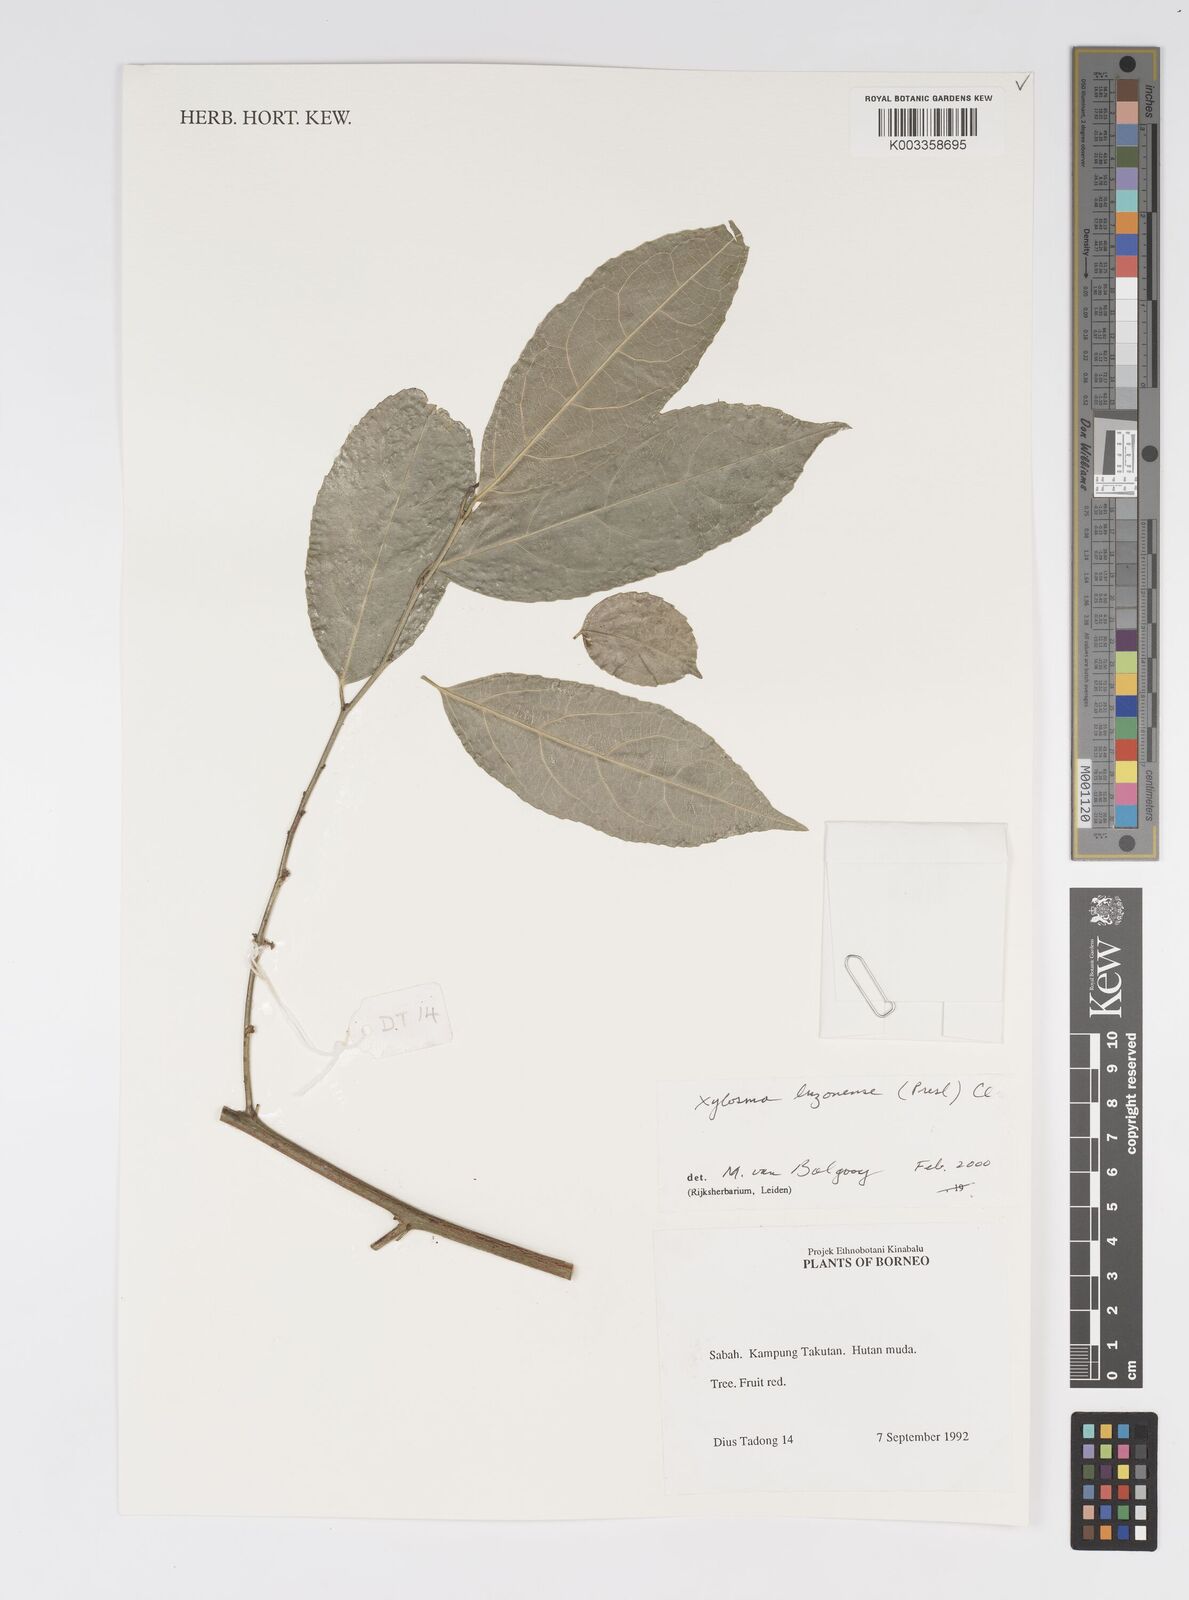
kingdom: Plantae
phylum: Tracheophyta
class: Magnoliopsida
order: Malpighiales
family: Salicaceae
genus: Xylosma
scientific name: Xylosma luzonensis
